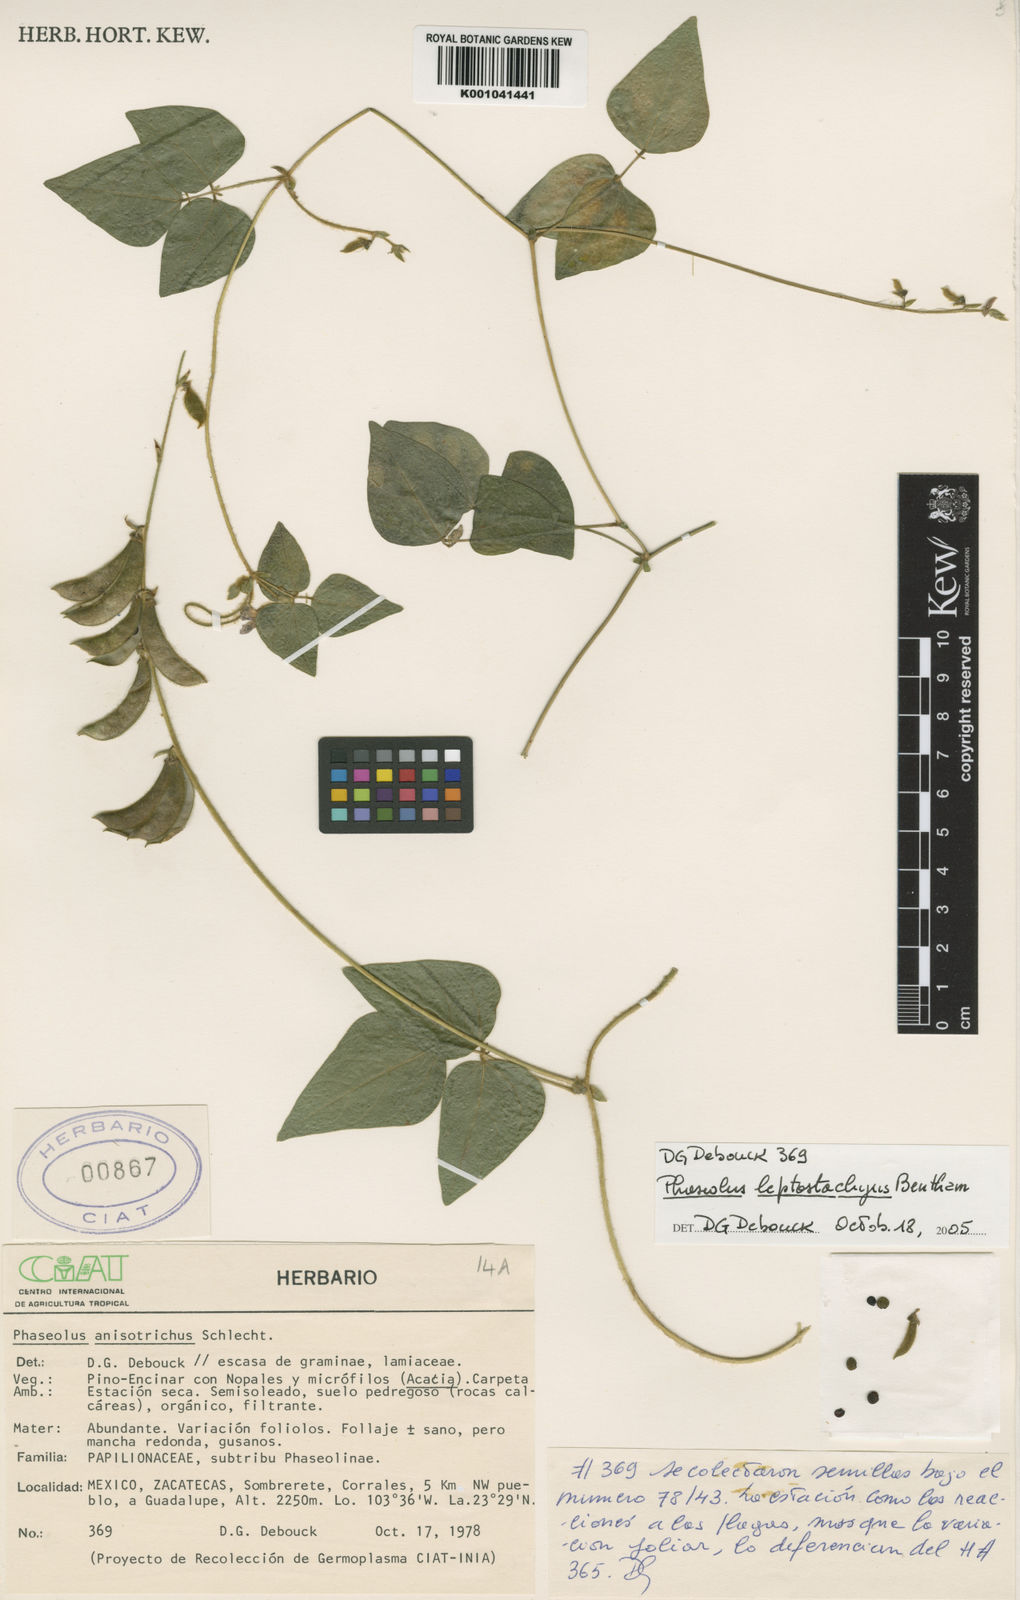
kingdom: Plantae
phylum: Tracheophyta
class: Magnoliopsida
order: Fabales
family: Fabaceae
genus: Phaseolus
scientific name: Phaseolus
